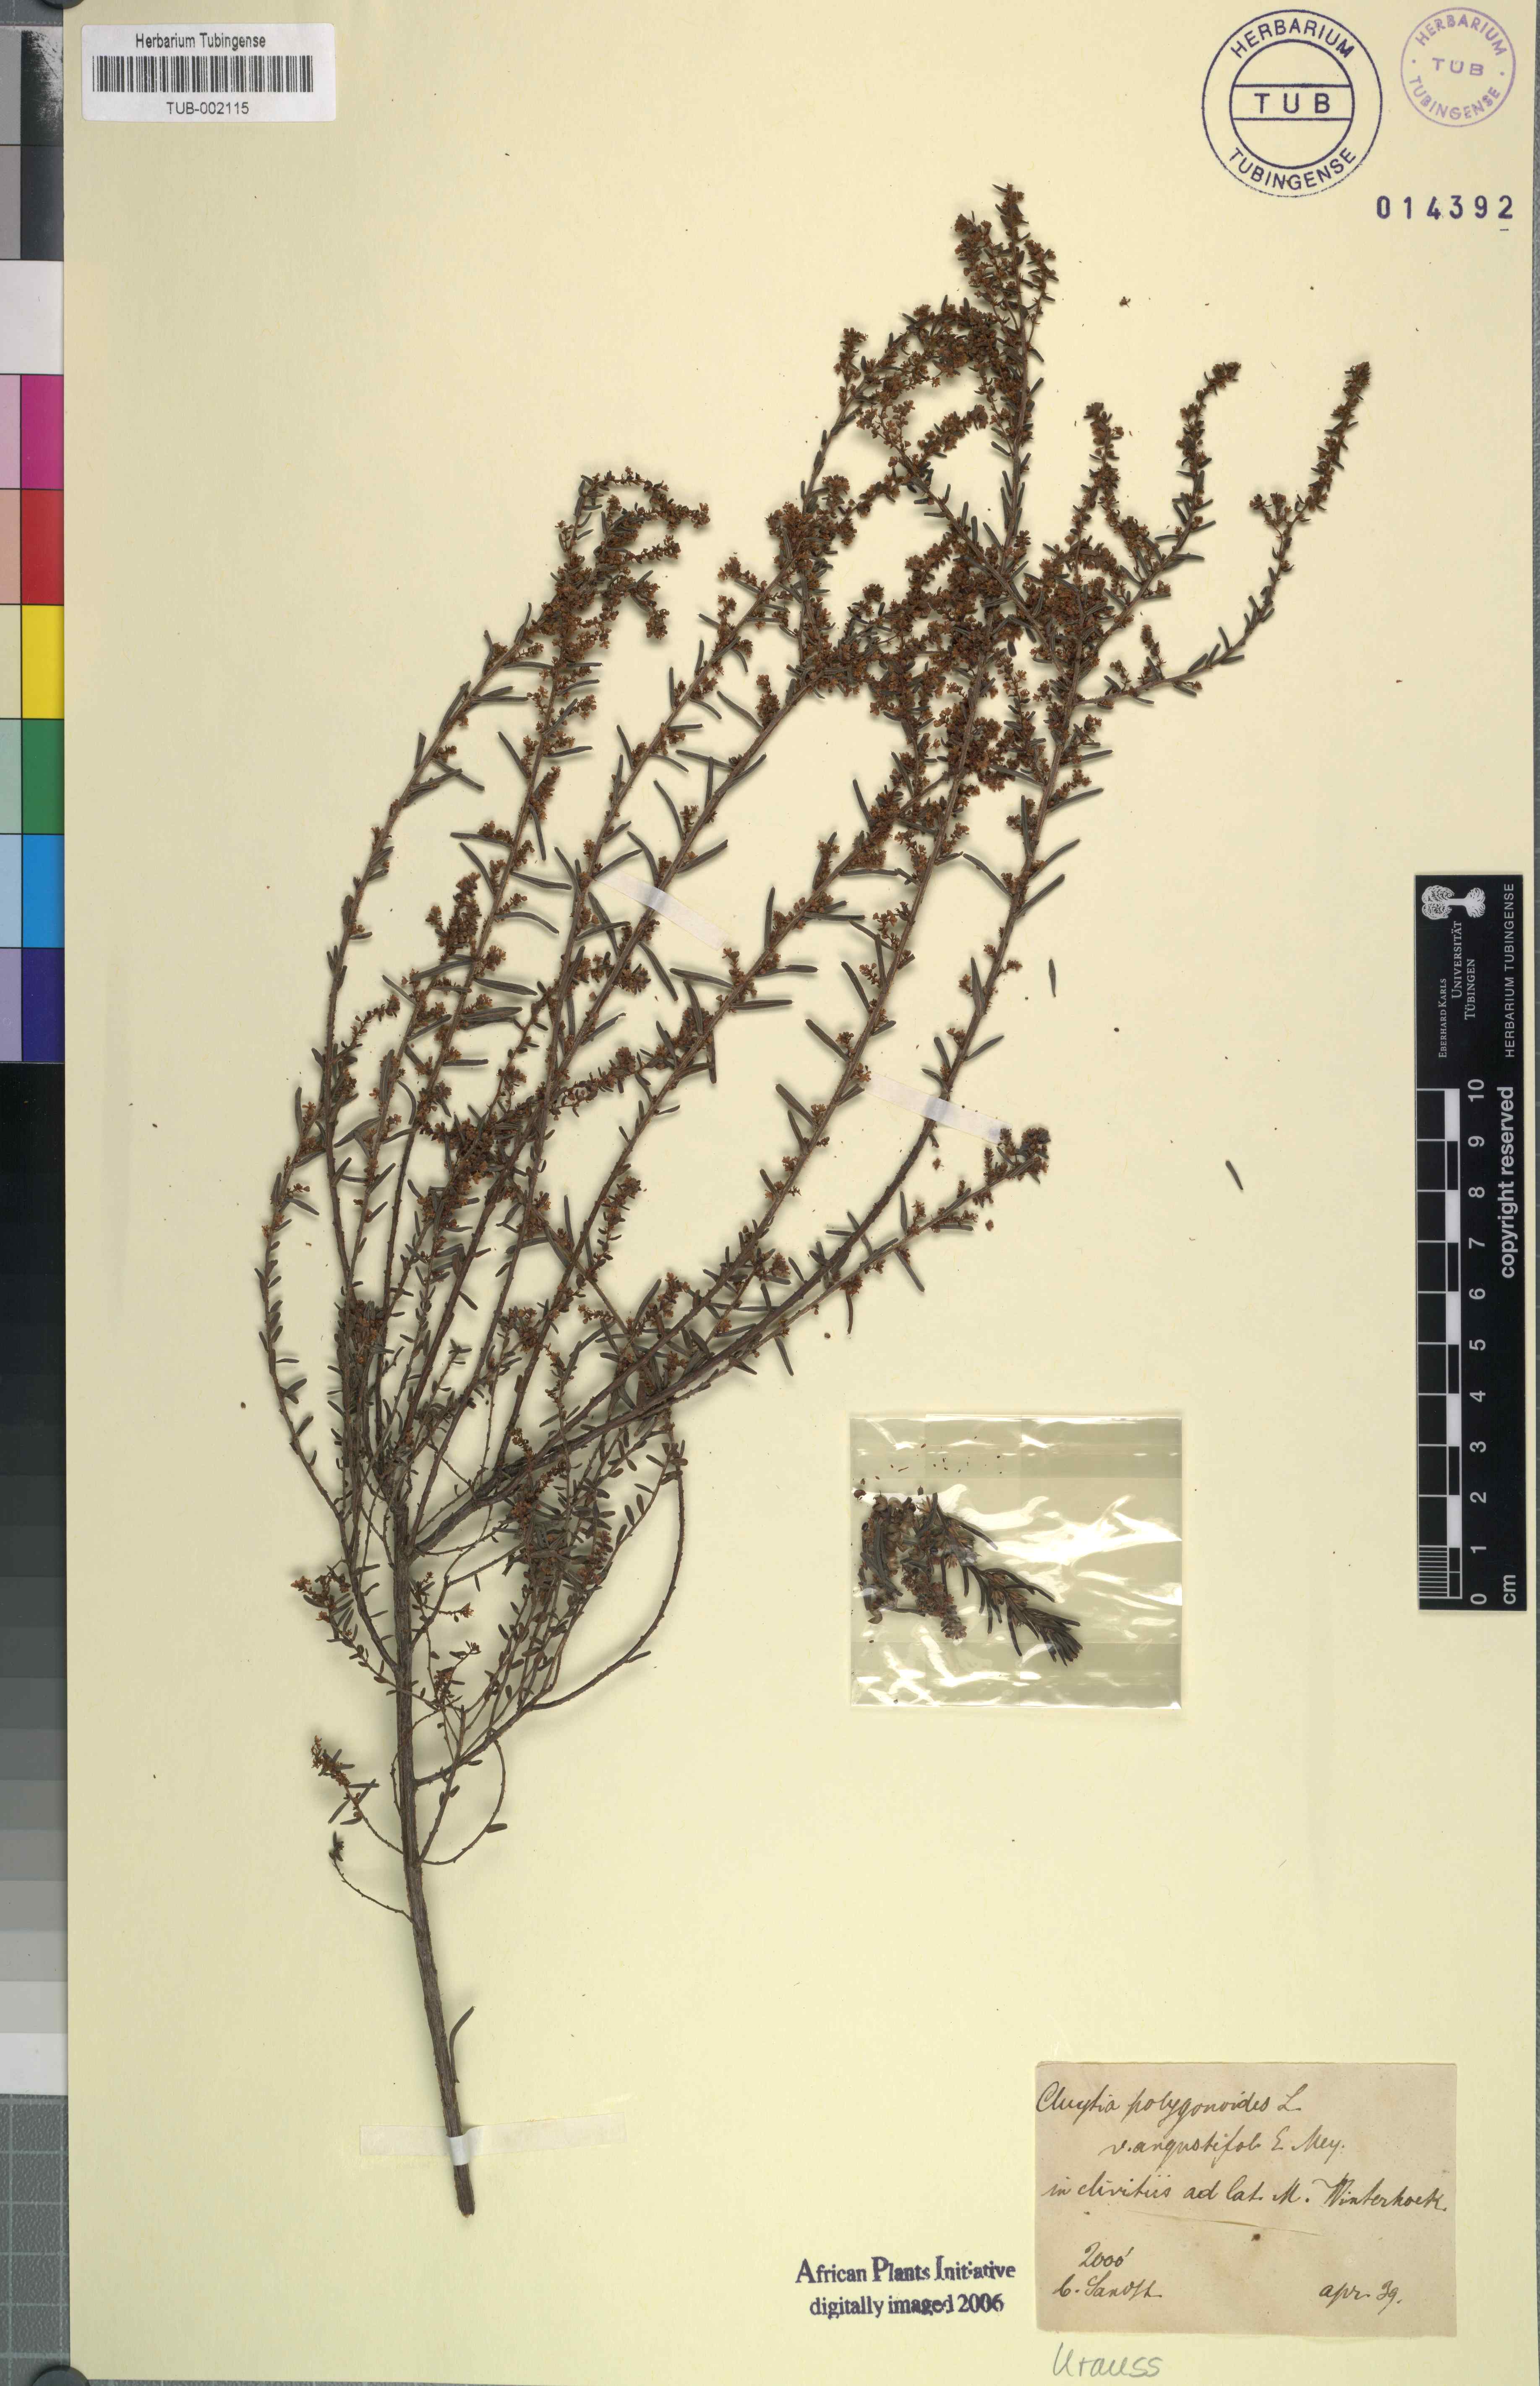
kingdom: Plantae
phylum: Tracheophyta
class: Magnoliopsida
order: Malpighiales
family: Peraceae
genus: Clutia
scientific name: Clutia polygonoides
